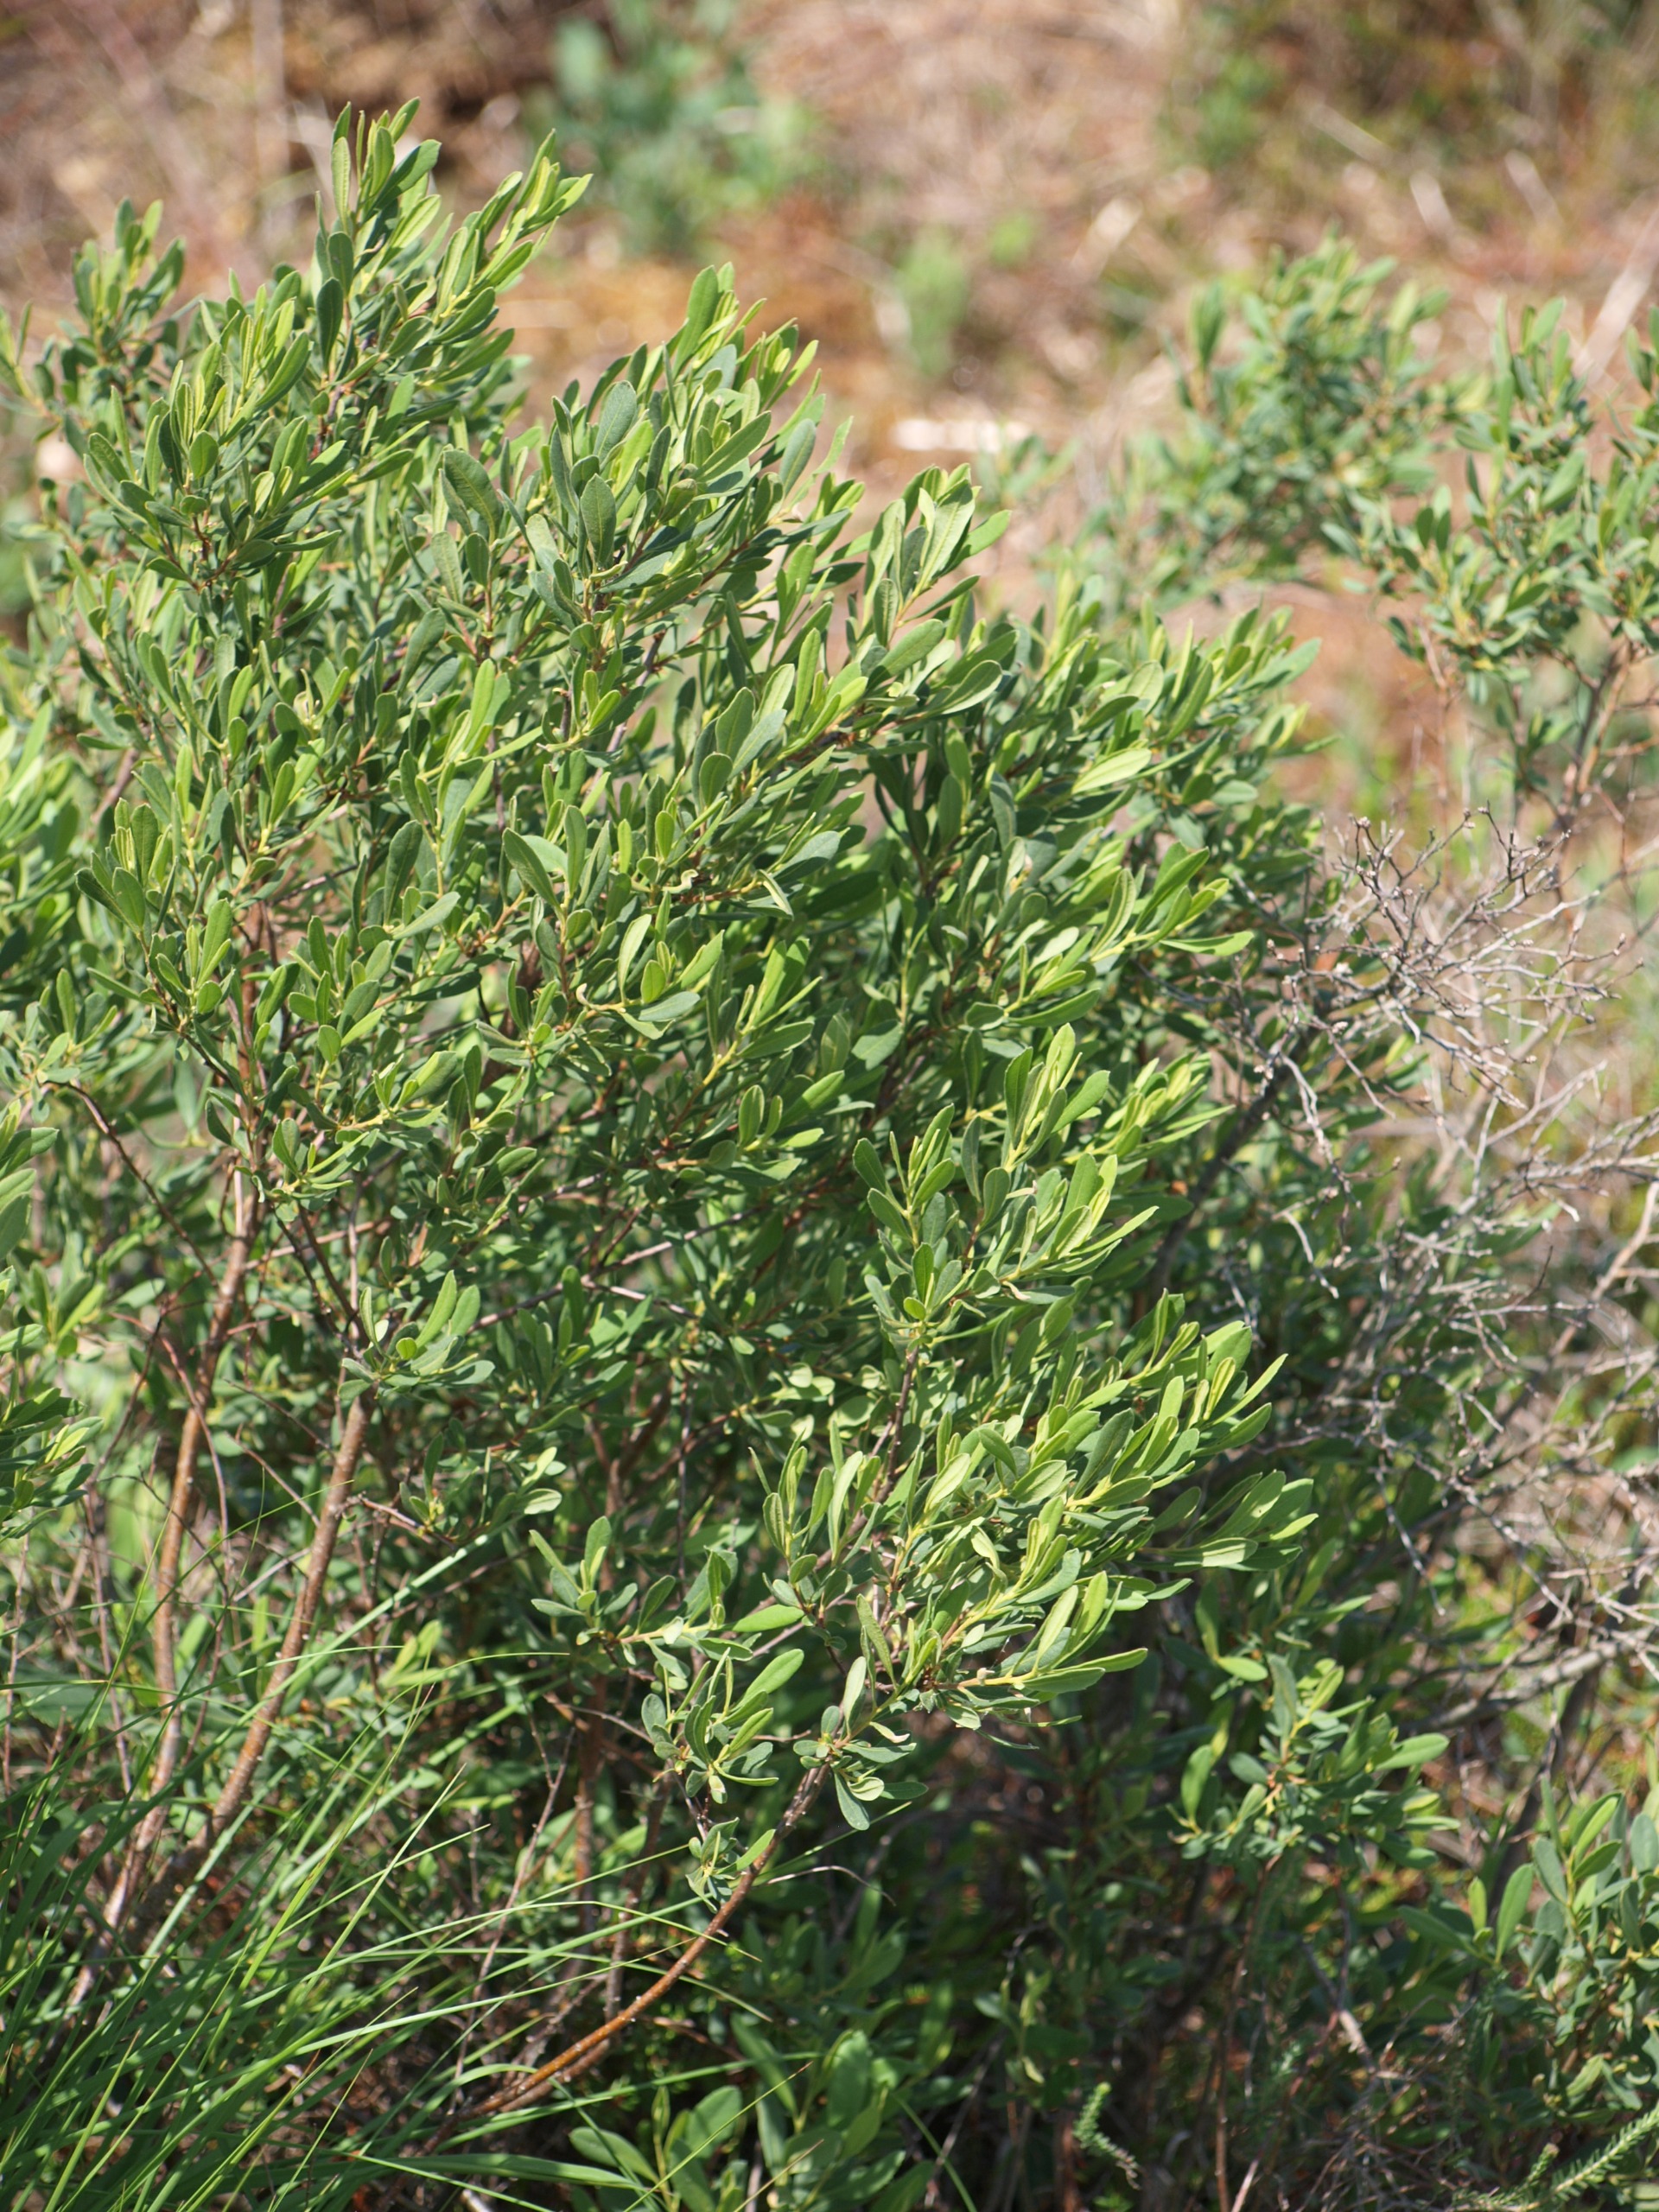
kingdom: Plantae
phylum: Tracheophyta
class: Magnoliopsida
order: Fagales
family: Myricaceae
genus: Myrica
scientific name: Myrica gale
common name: Pors
